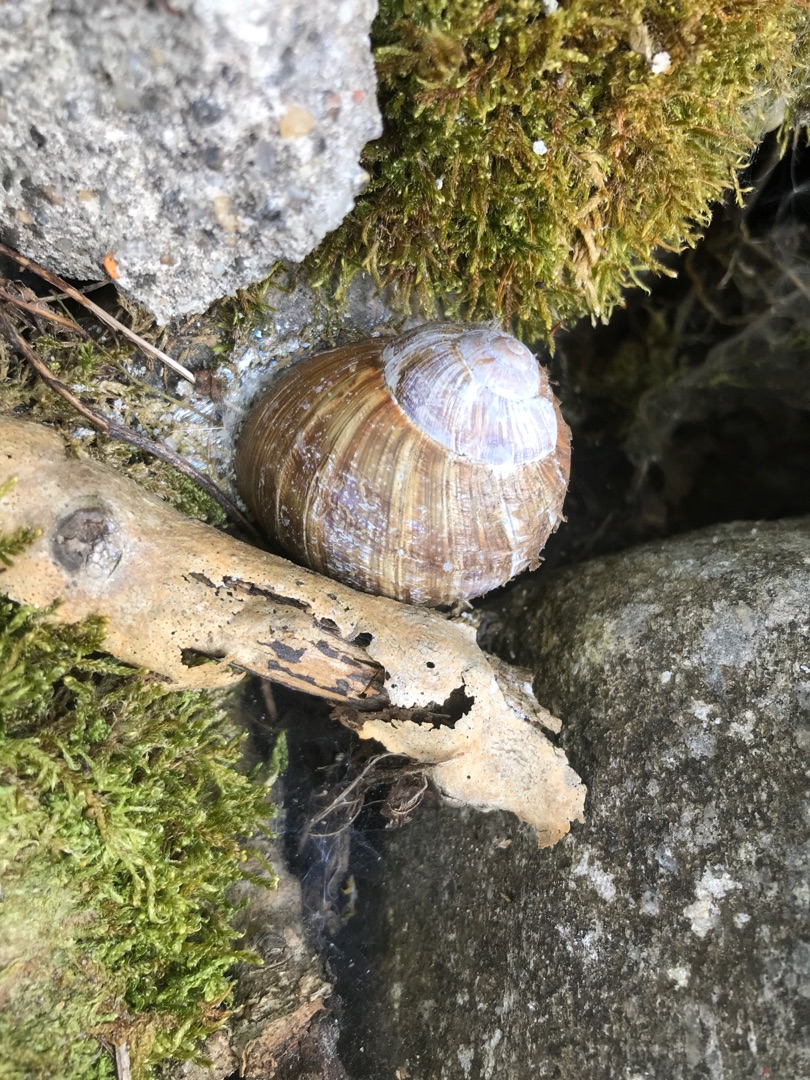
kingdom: Animalia
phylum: Mollusca
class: Gastropoda
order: Stylommatophora
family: Helicidae
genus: Helix
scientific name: Helix pomatia
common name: Vinbjergsnegl
